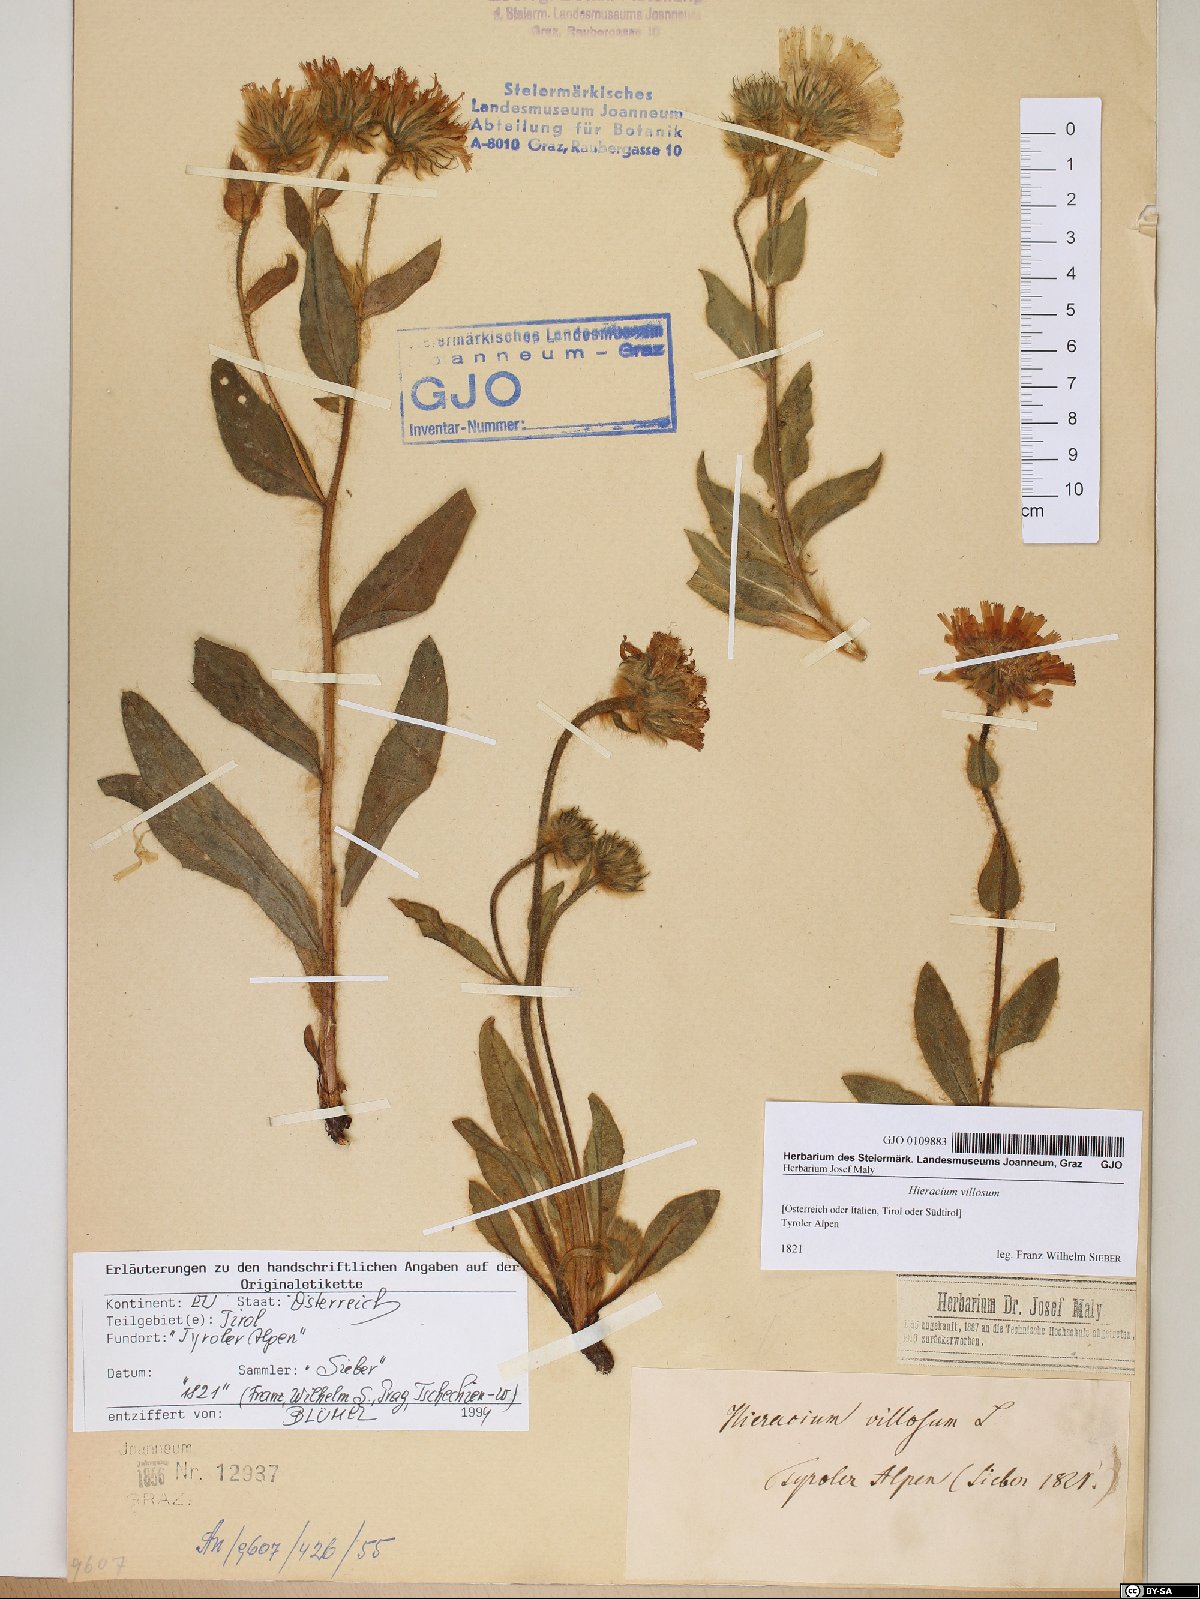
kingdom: Plantae
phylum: Tracheophyta
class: Magnoliopsida
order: Asterales
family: Asteraceae
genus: Hieracium
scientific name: Hieracium villosum
